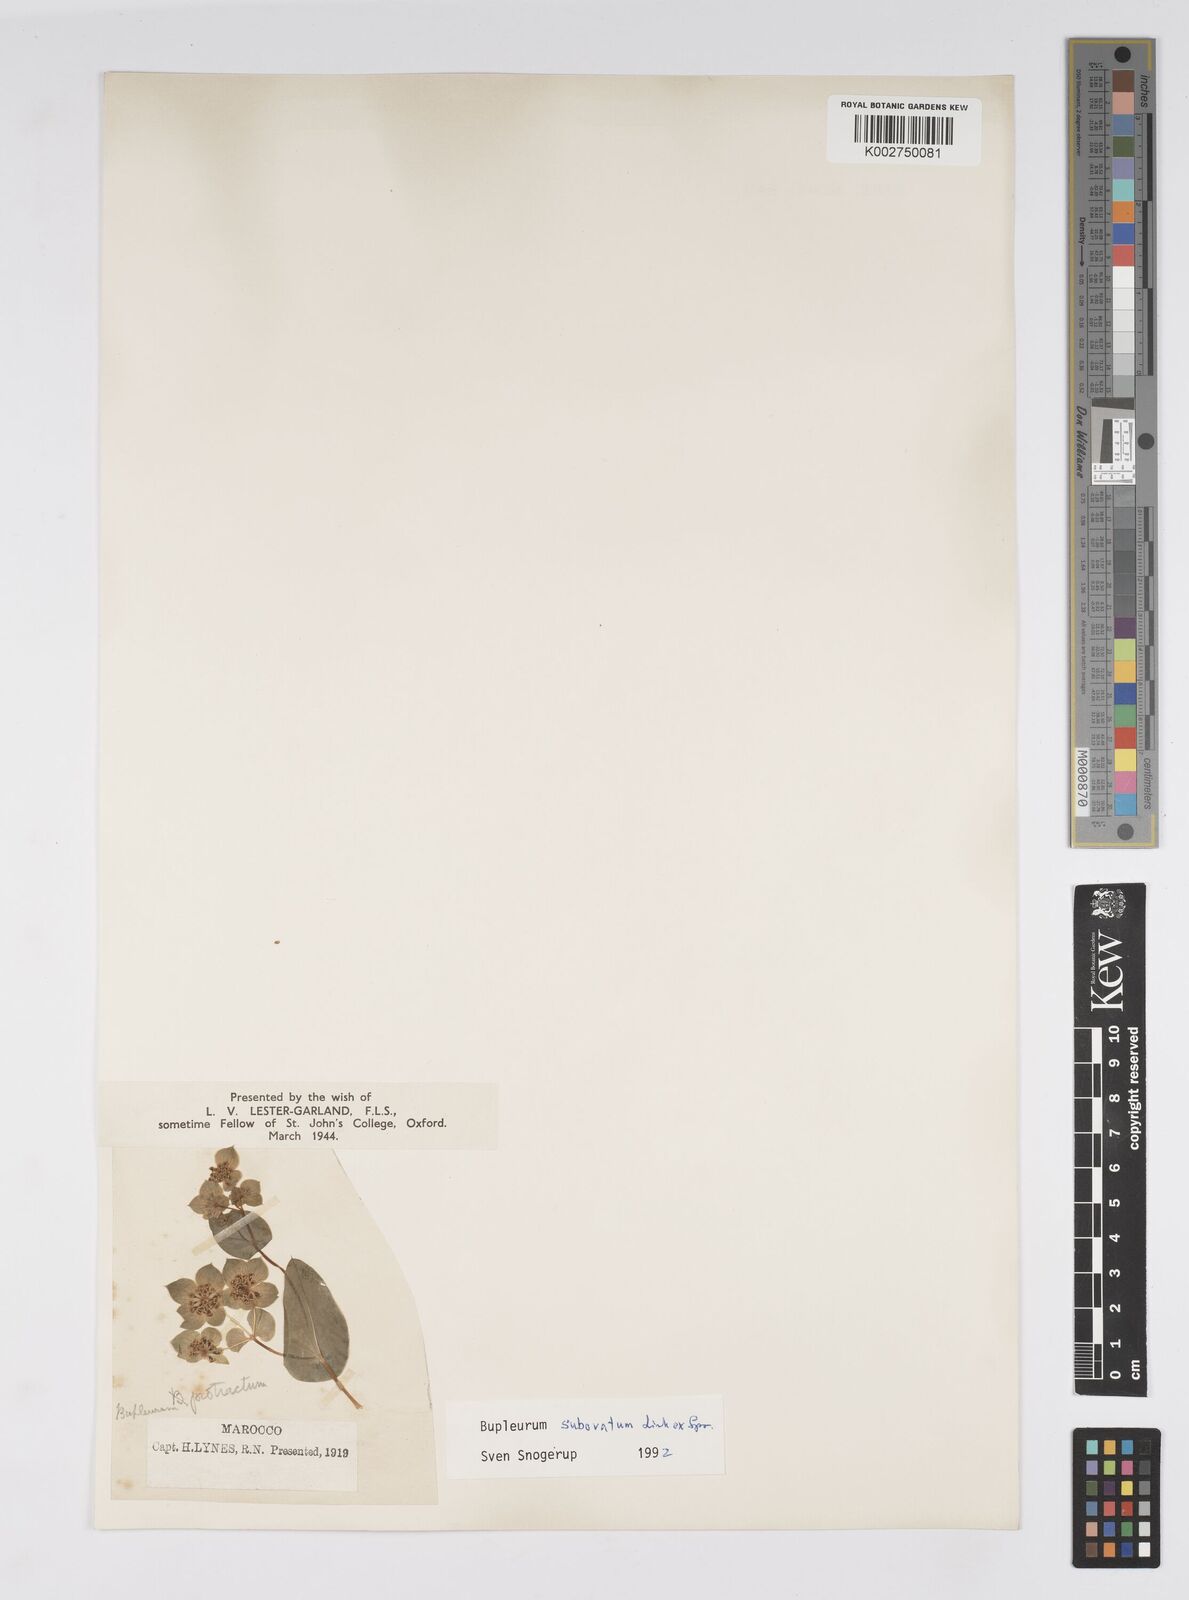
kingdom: Plantae
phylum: Tracheophyta
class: Magnoliopsida
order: Apiales
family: Apiaceae
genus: Bupleurum
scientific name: Bupleurum subovatum
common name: False thorow-wax
